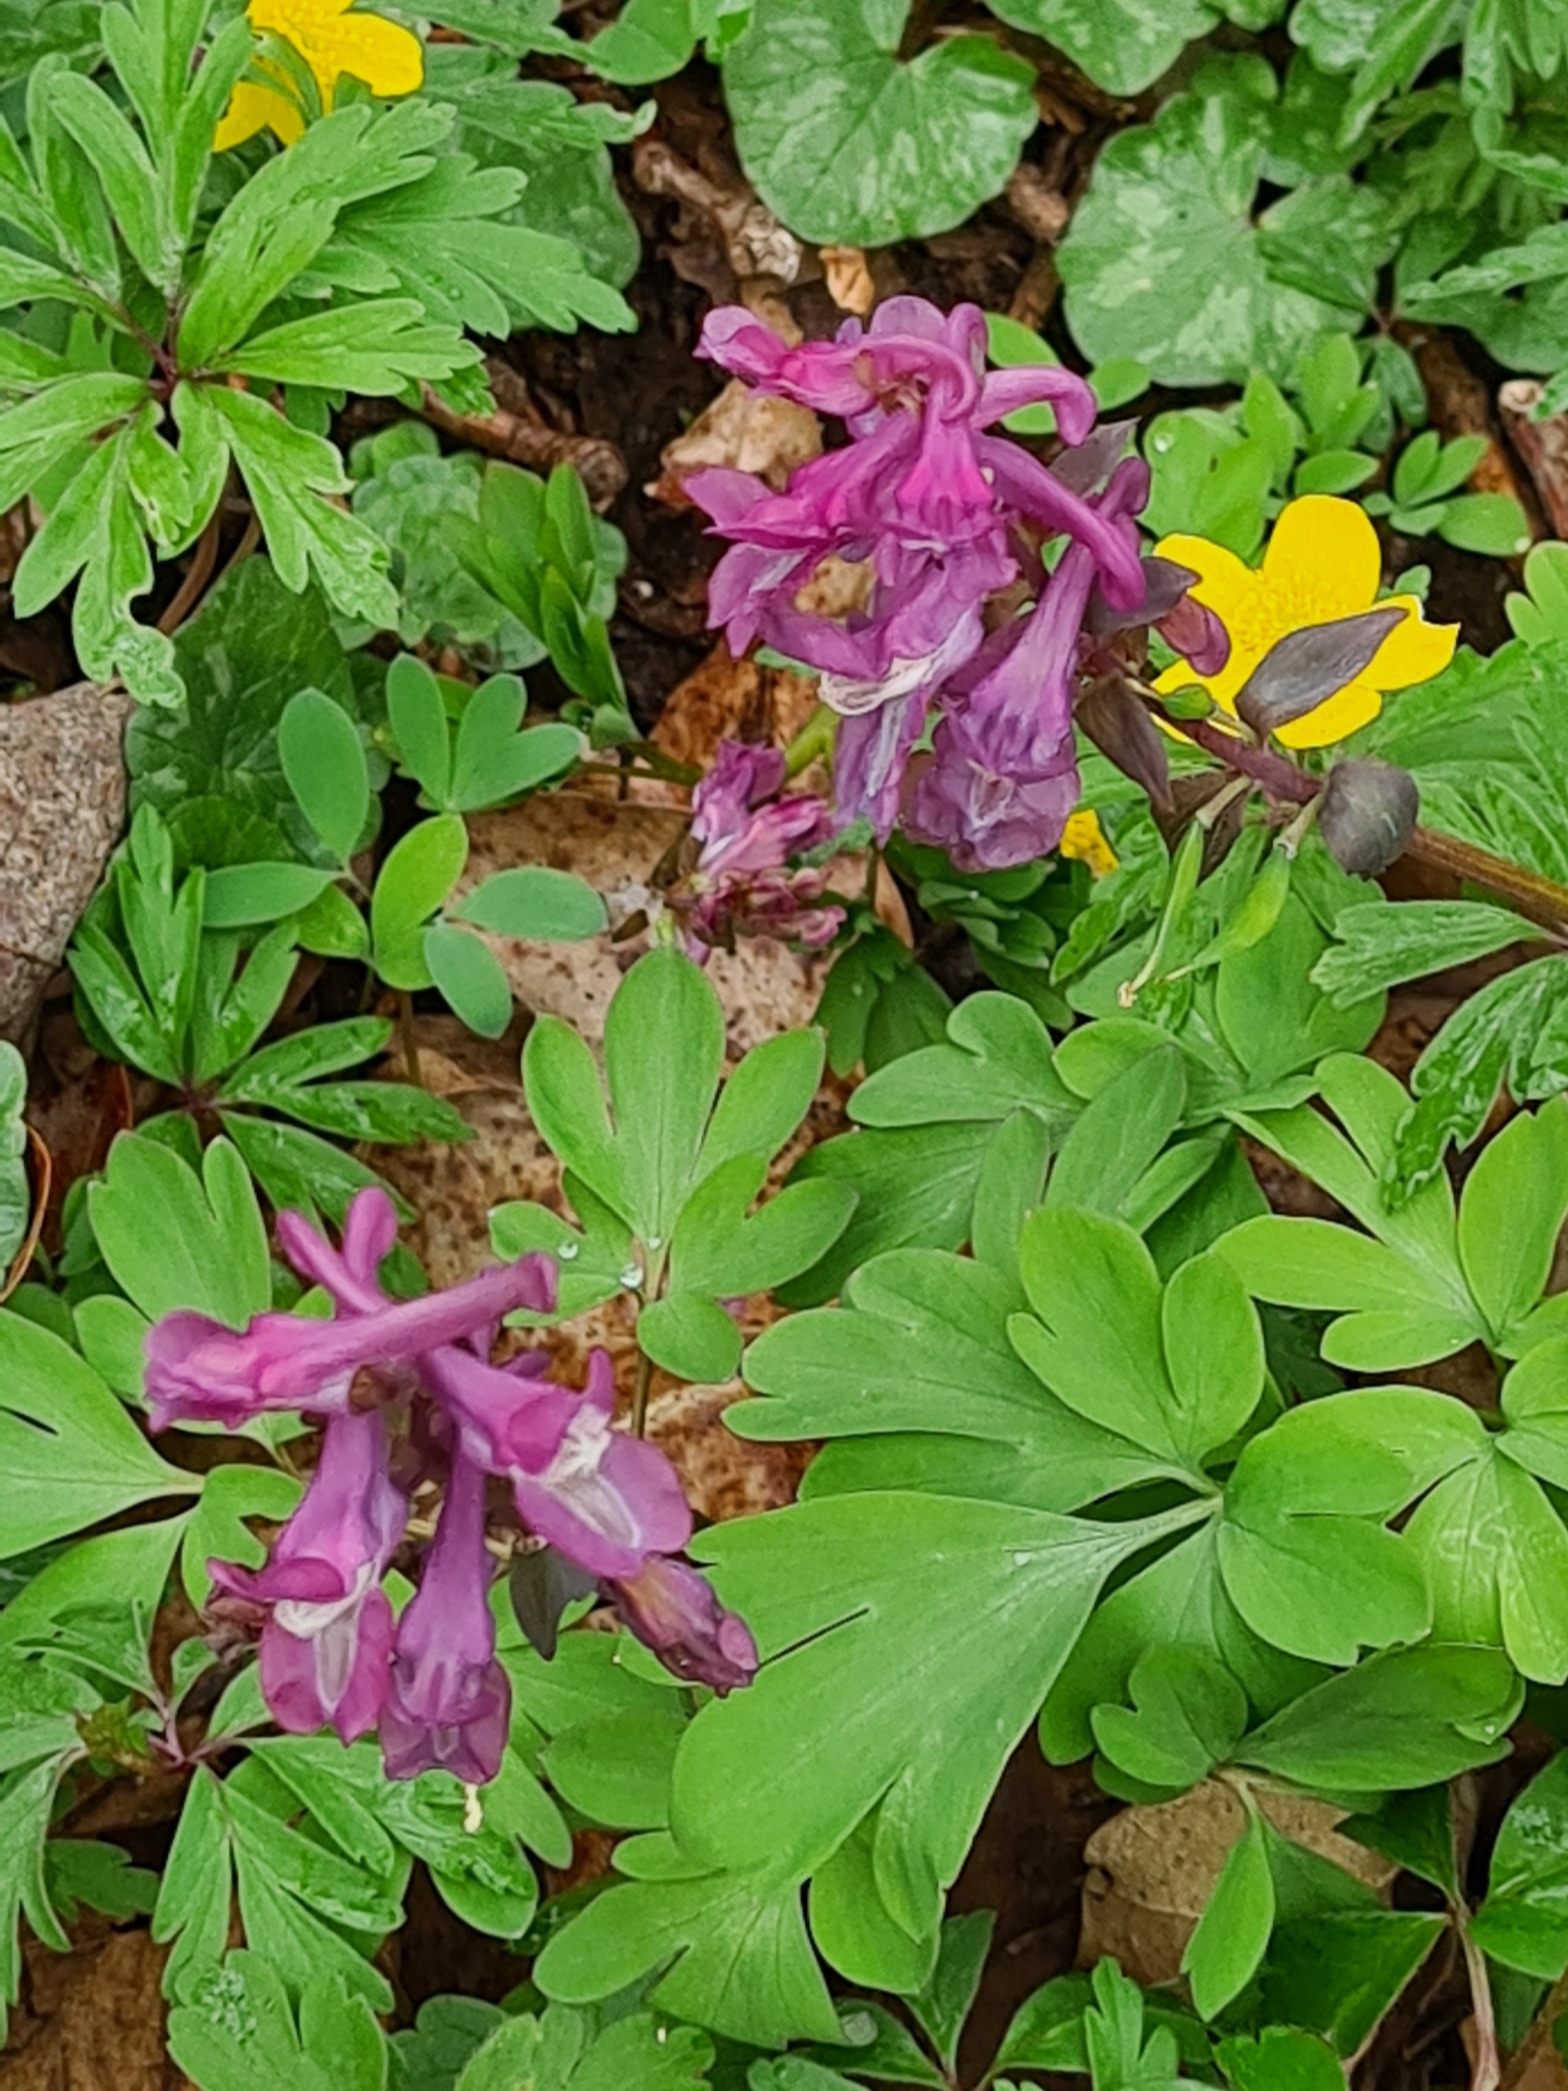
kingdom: Plantae
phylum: Tracheophyta
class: Magnoliopsida
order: Ranunculales
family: Papaveraceae
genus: Corydalis
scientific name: Corydalis cava
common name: Hulrodet lærkespore
